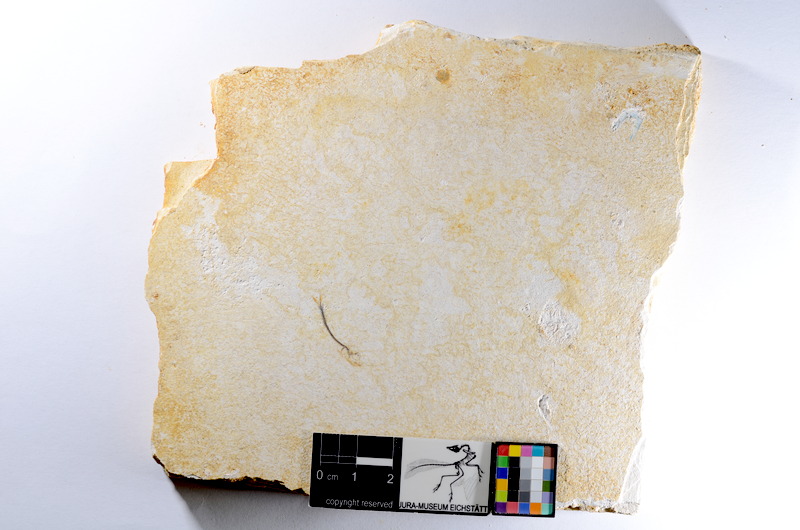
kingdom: Animalia
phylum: Chordata
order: Salmoniformes
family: Orthogonikleithridae
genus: Orthogonikleithrus
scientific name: Orthogonikleithrus hoelli
